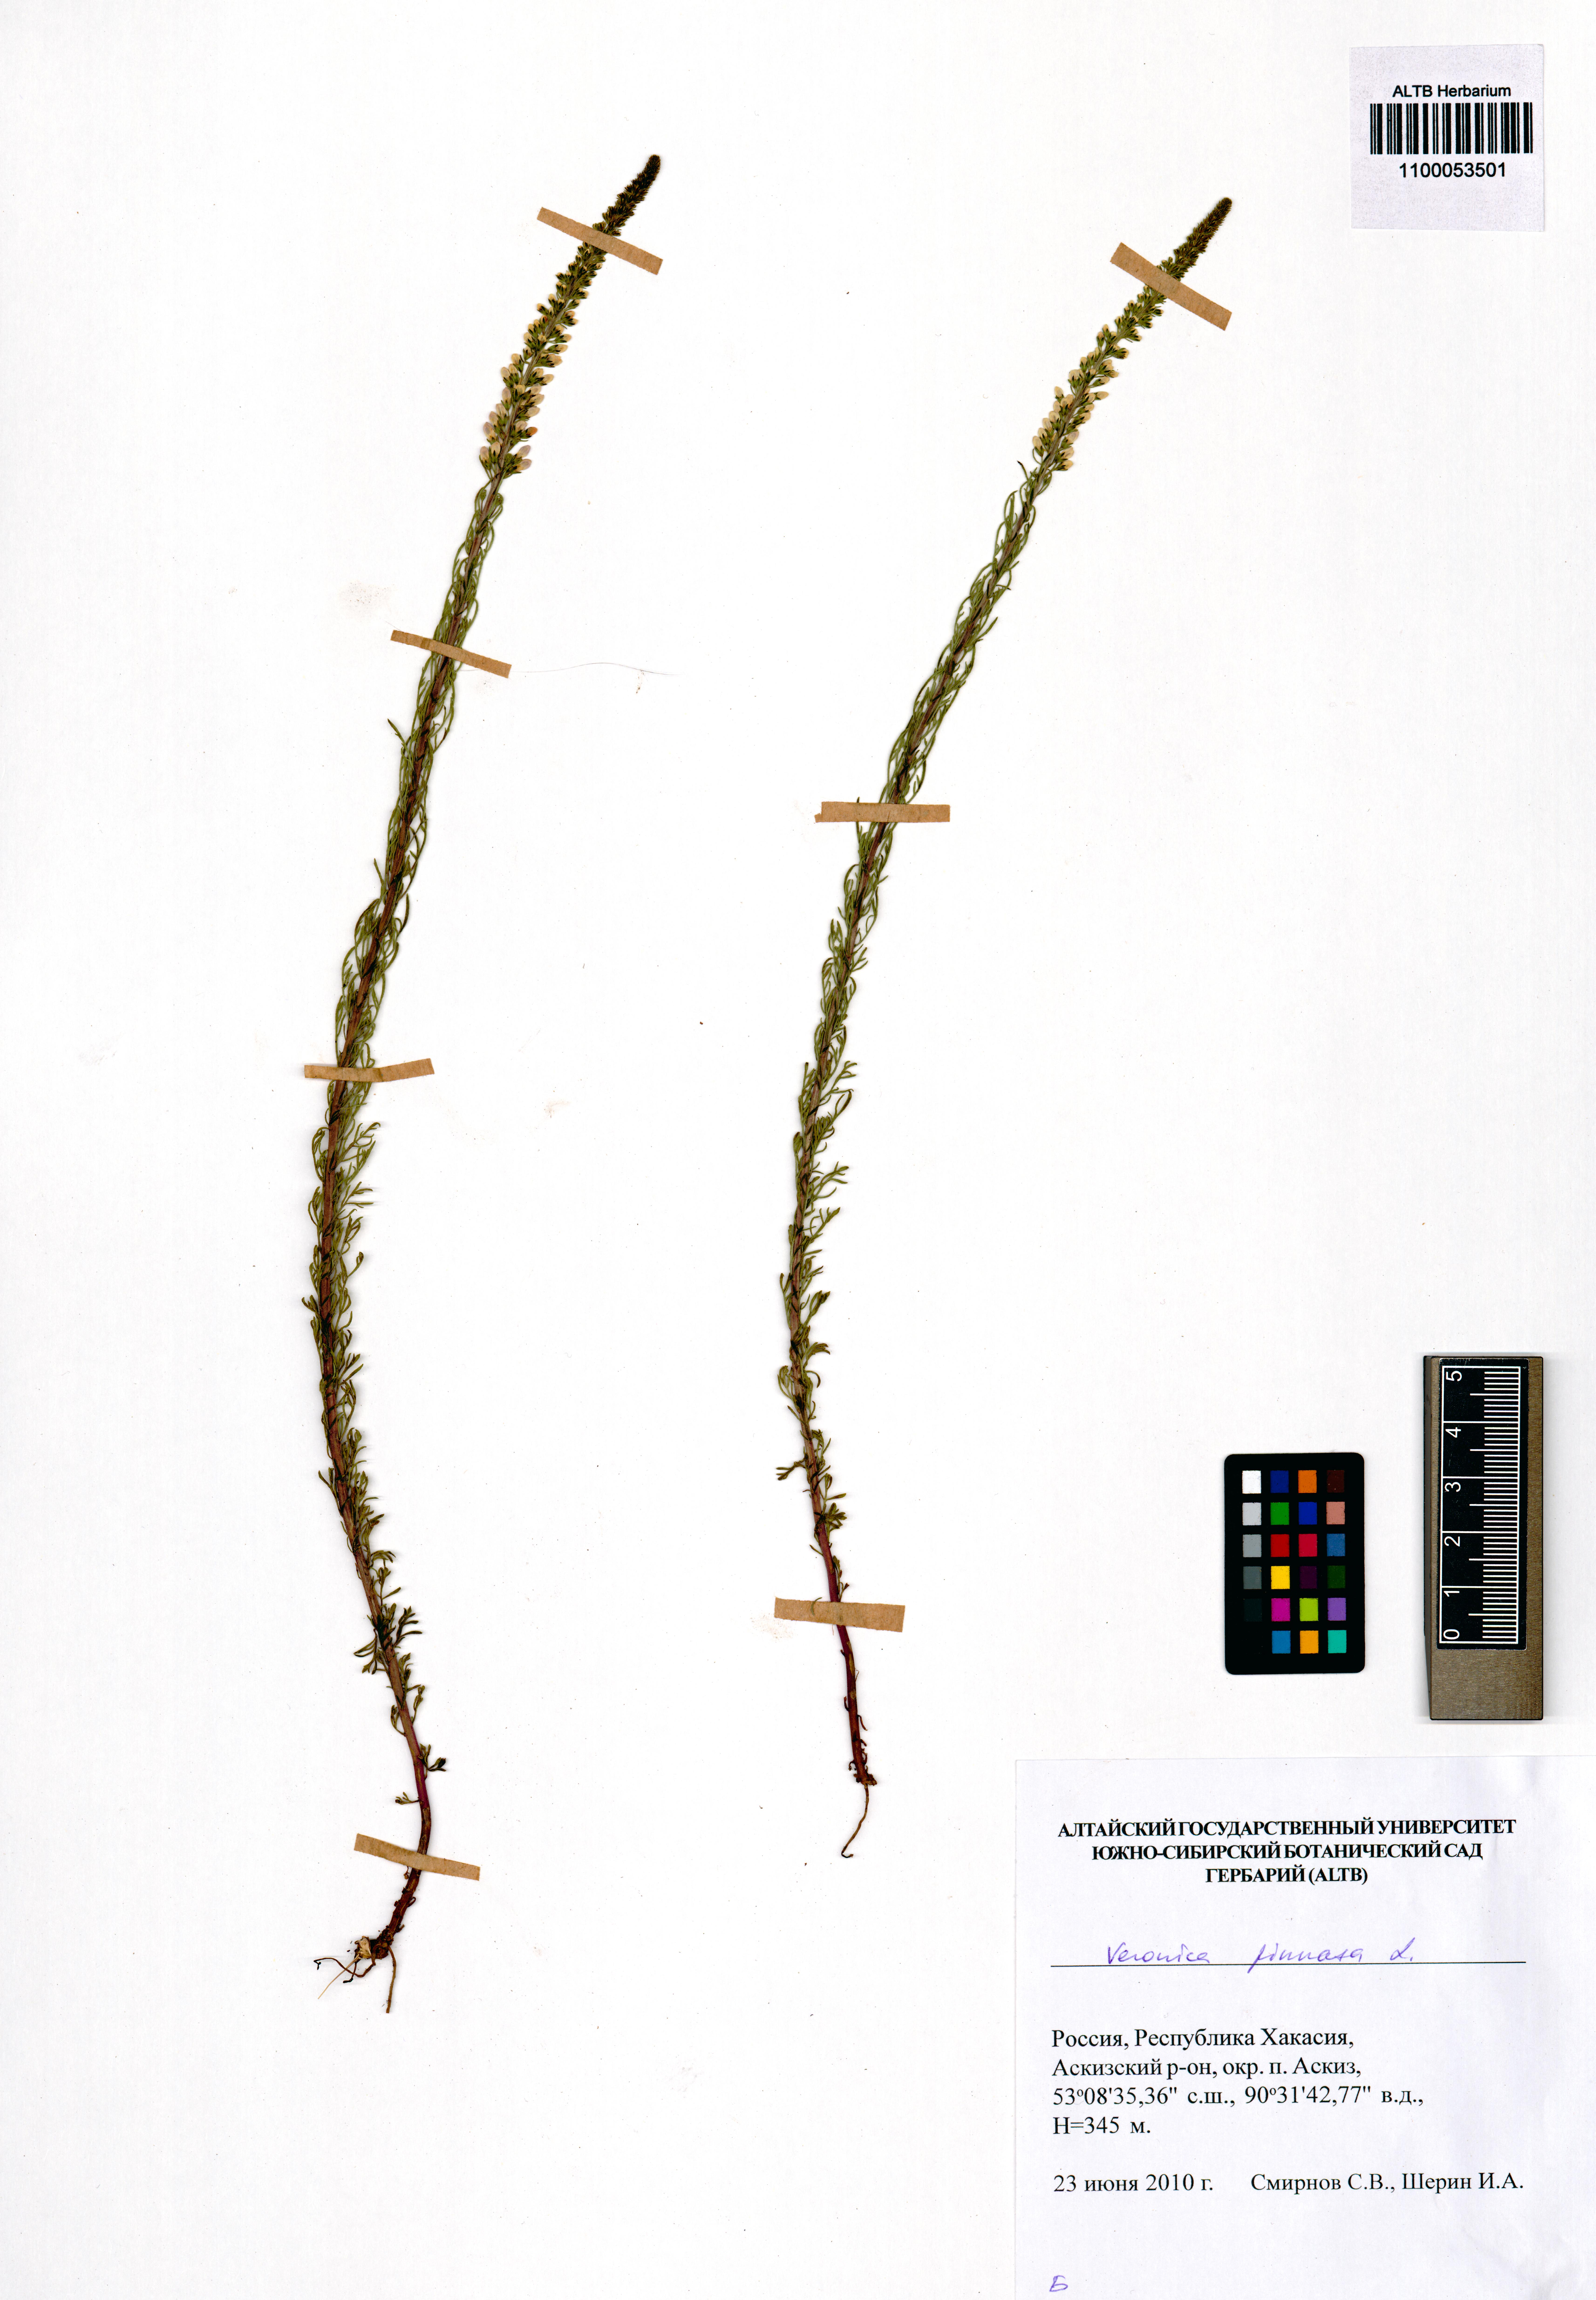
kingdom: Plantae
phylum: Tracheophyta
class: Magnoliopsida
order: Lamiales
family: Plantaginaceae
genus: Veronica
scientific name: Veronica pinnata
